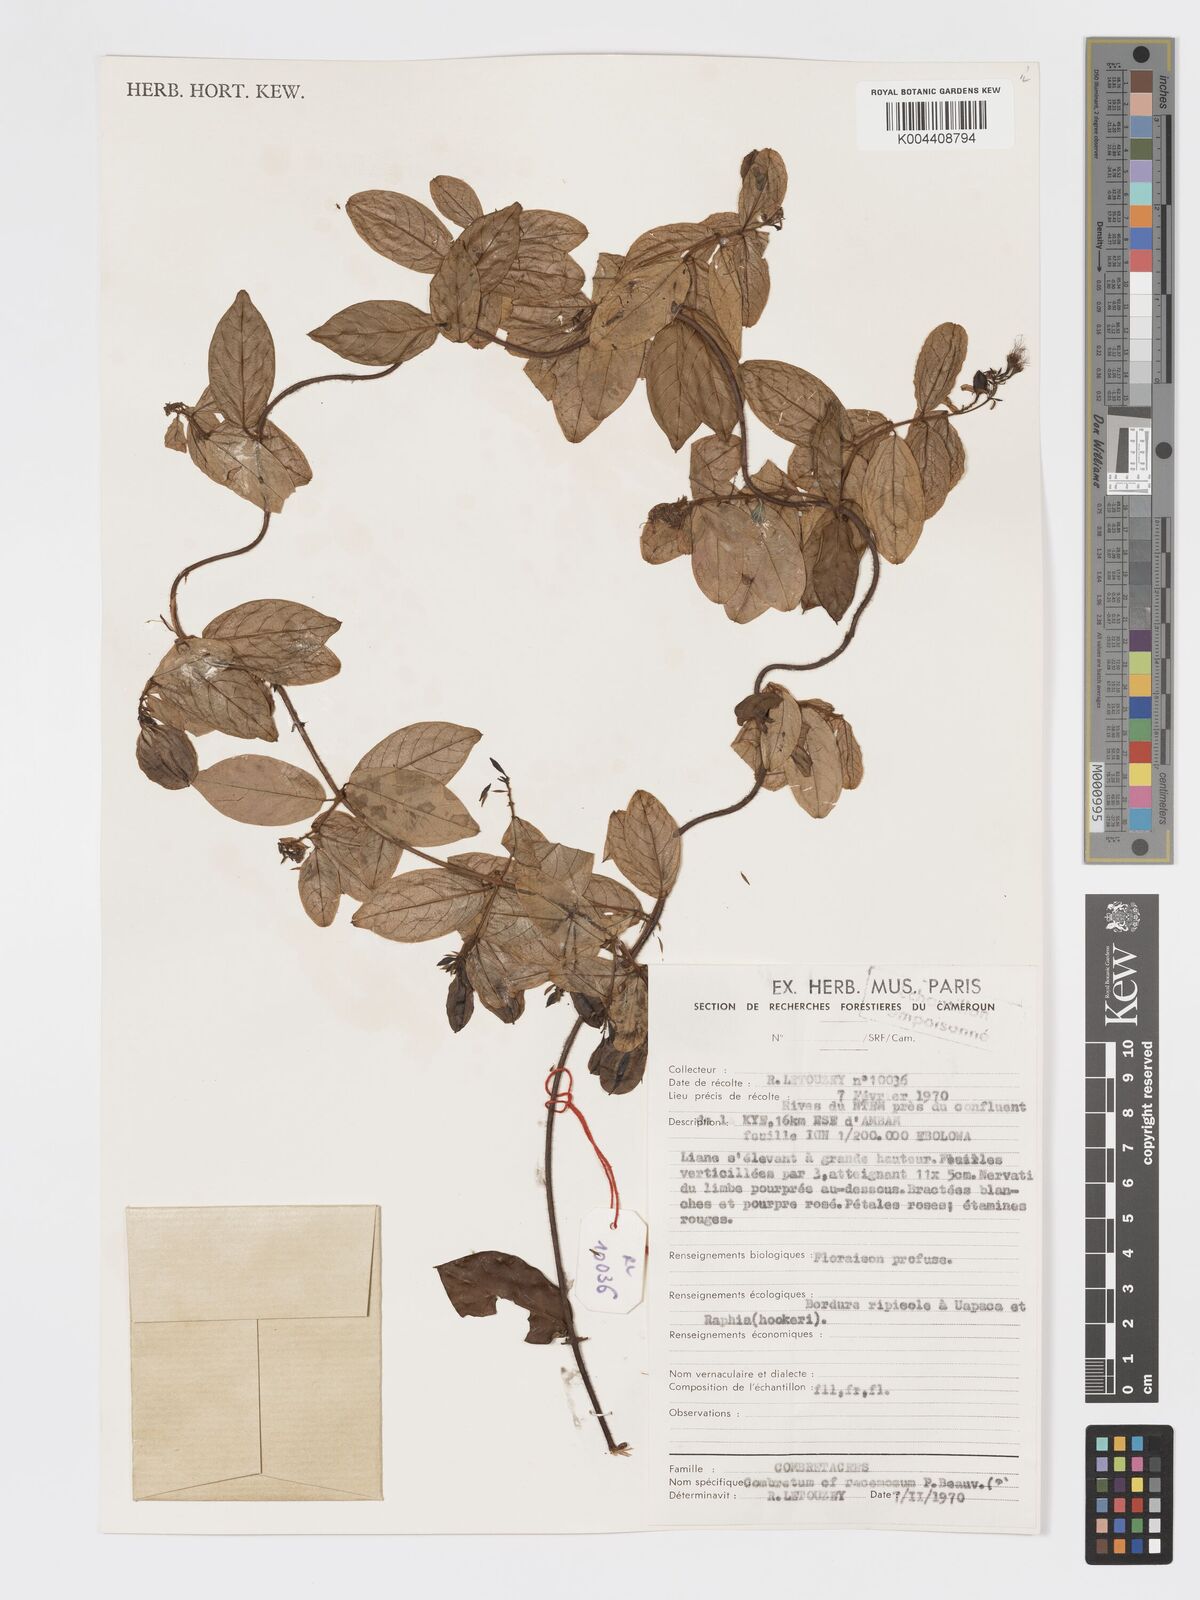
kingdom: Plantae
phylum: Tracheophyta
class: Magnoliopsida
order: Myrtales
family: Combretaceae
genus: Combretum
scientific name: Combretum racemosum
